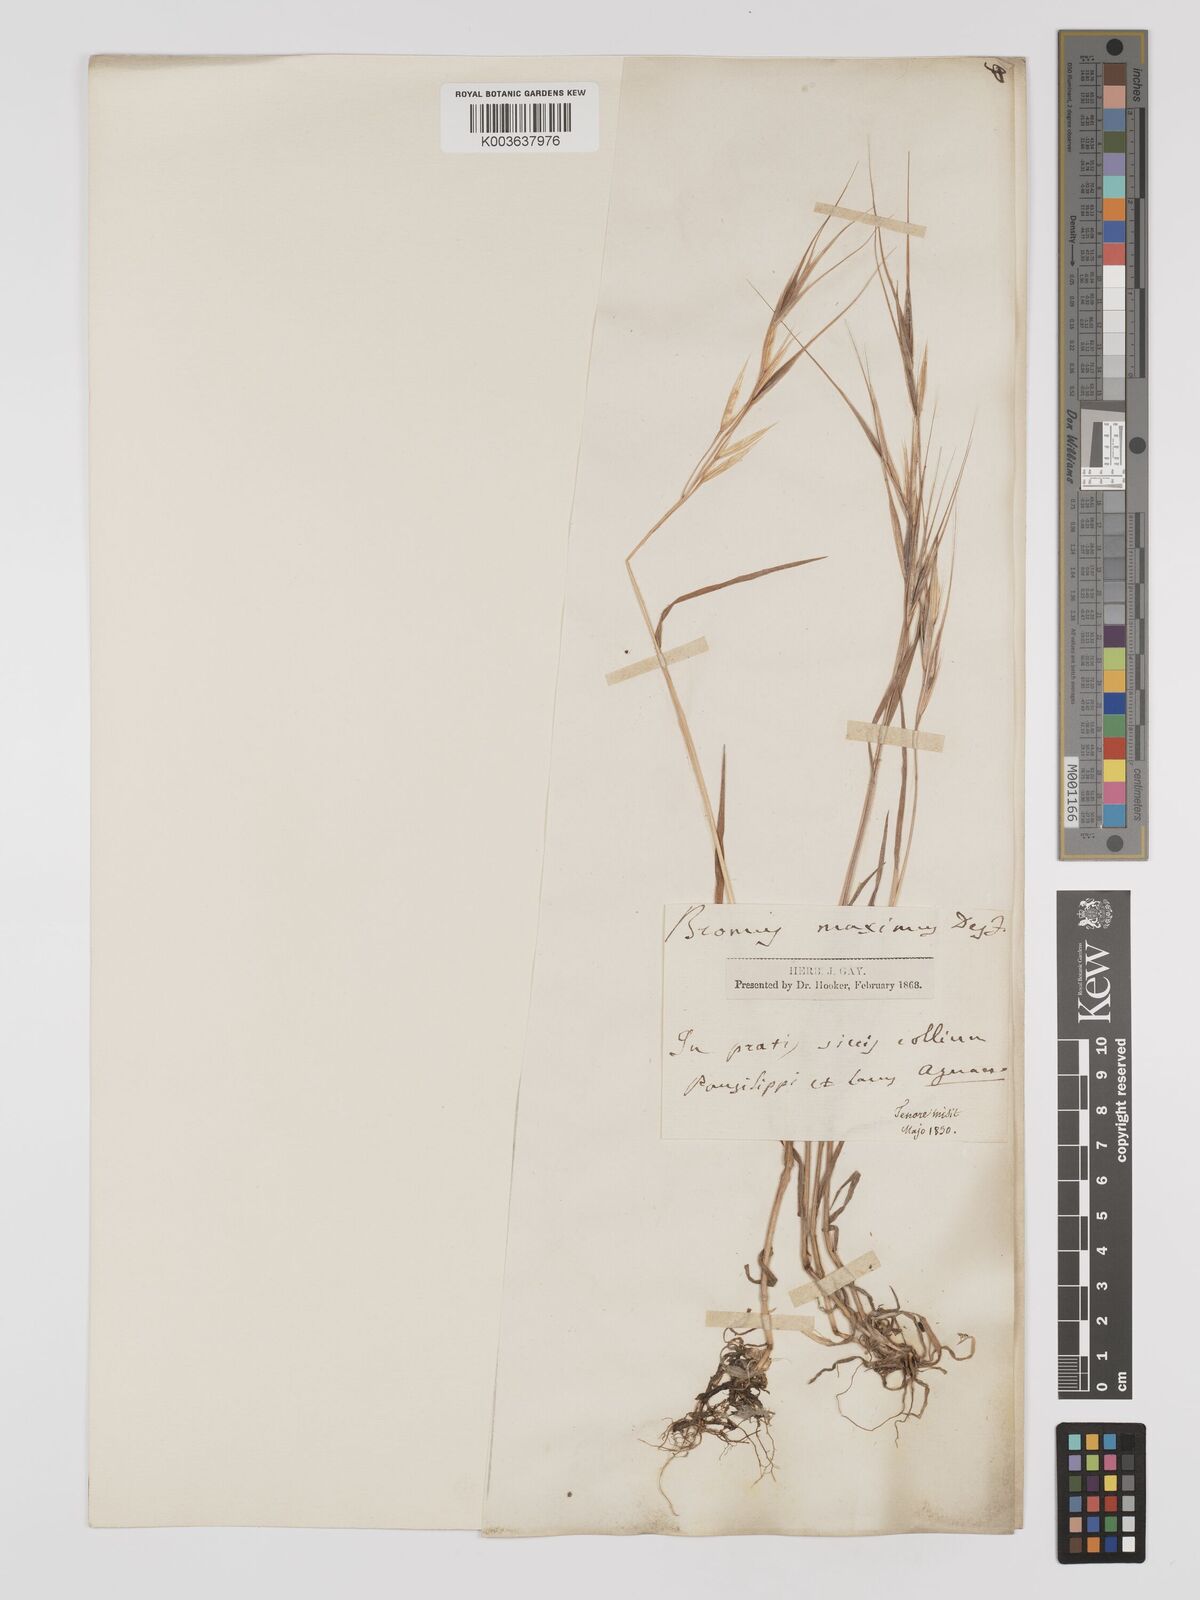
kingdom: Plantae
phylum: Tracheophyta
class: Liliopsida
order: Poales
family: Poaceae
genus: Bromus
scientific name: Bromus
